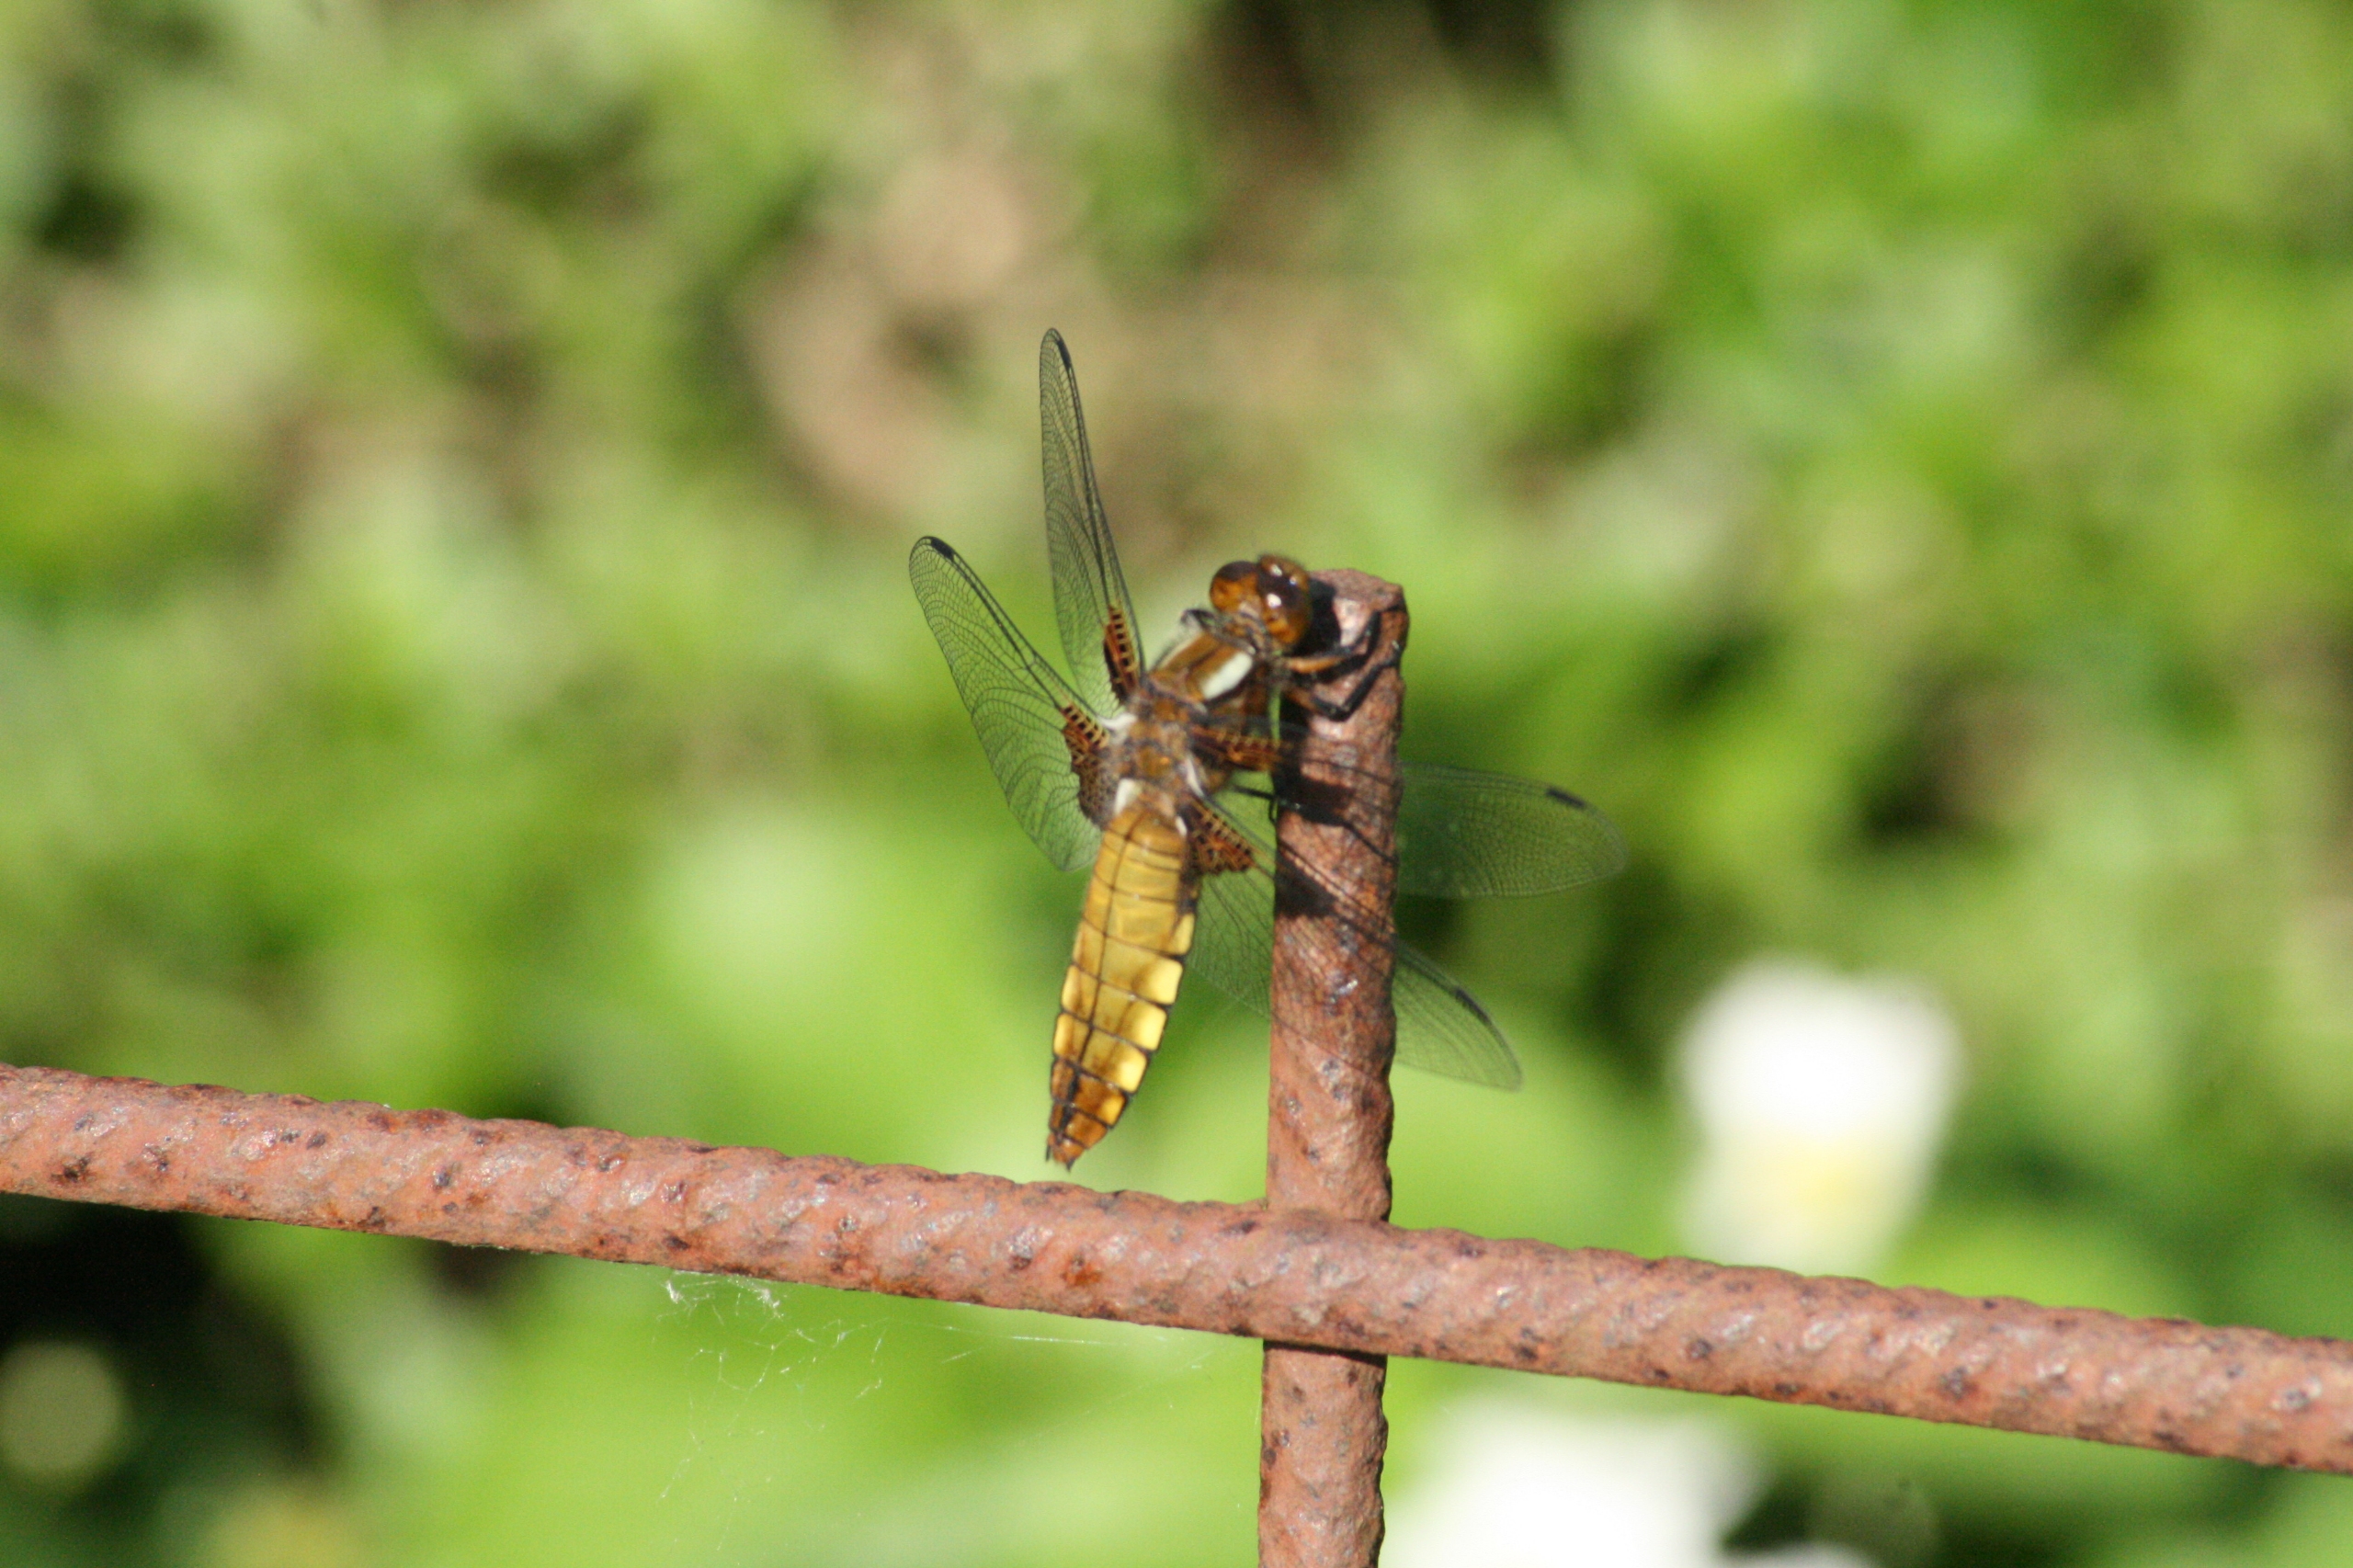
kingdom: Animalia
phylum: Arthropoda
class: Insecta
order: Odonata
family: Libellulidae
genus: Libellula
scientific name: Libellula depressa
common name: Blå libel
